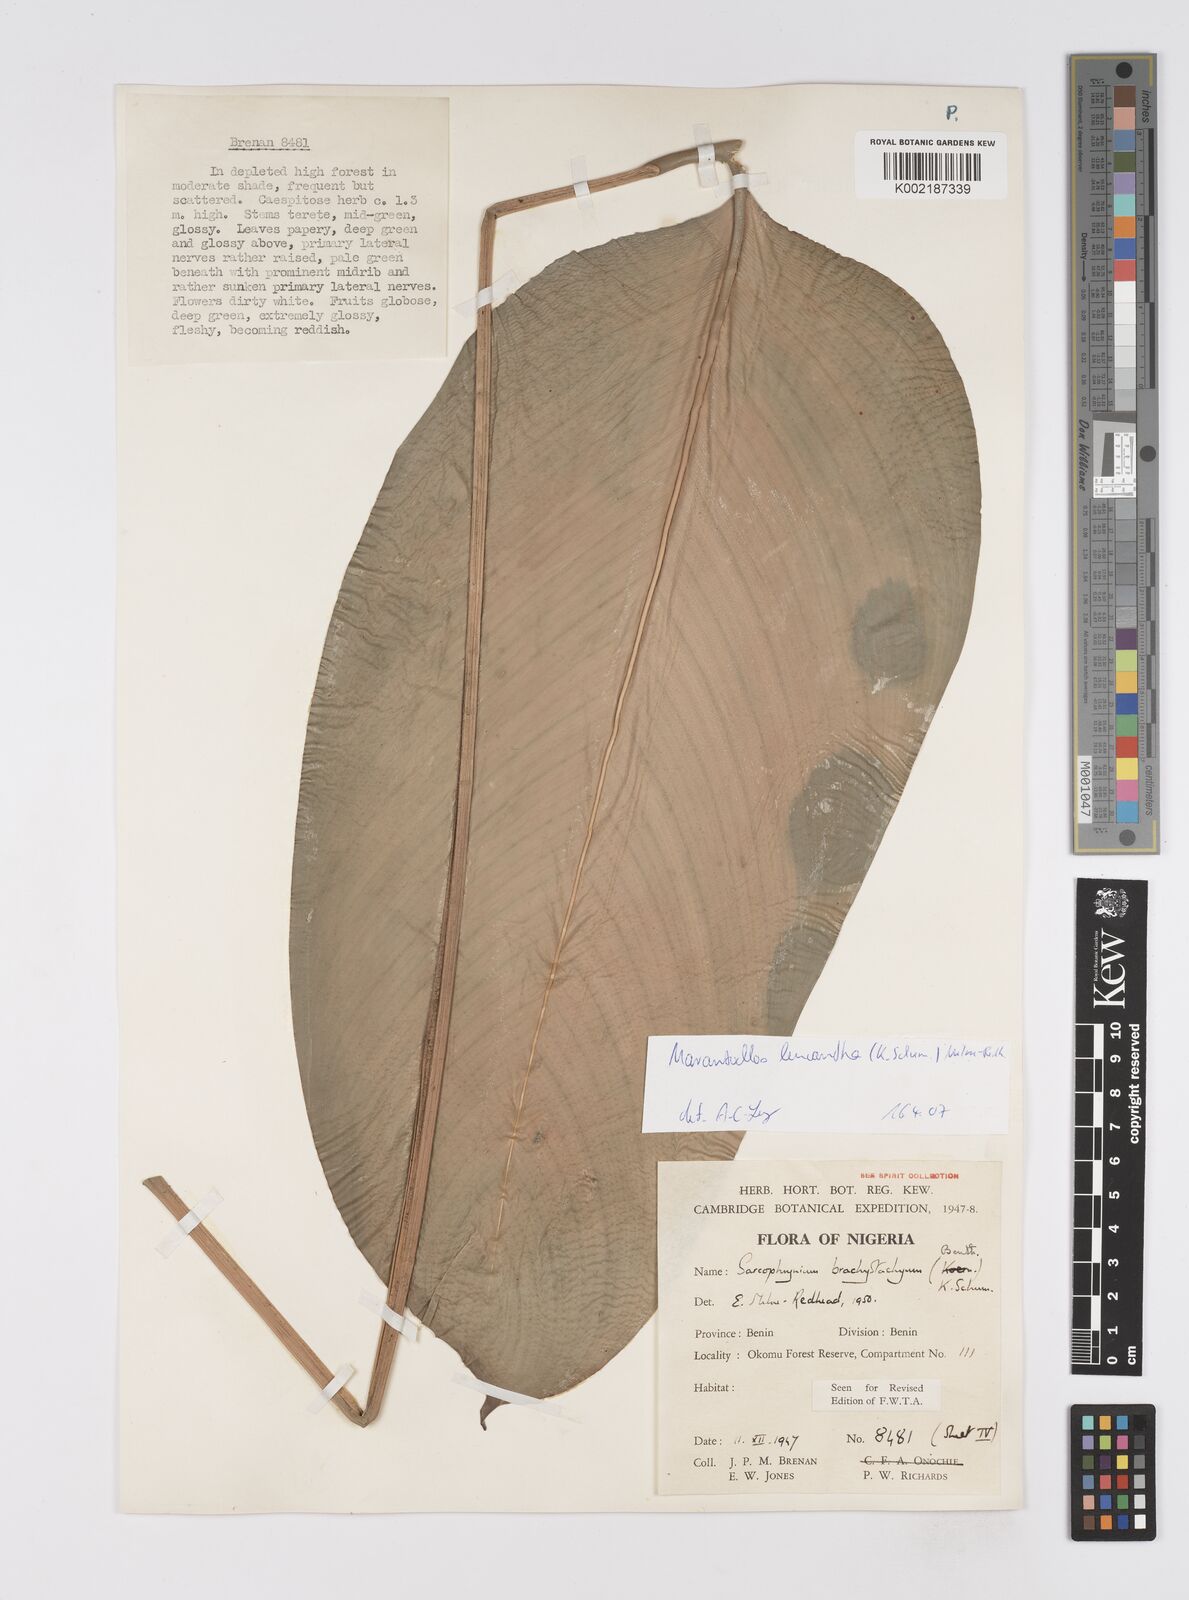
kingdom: Plantae
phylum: Tracheophyta
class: Liliopsida
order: Zingiberales
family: Marantaceae
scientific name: Marantaceae
